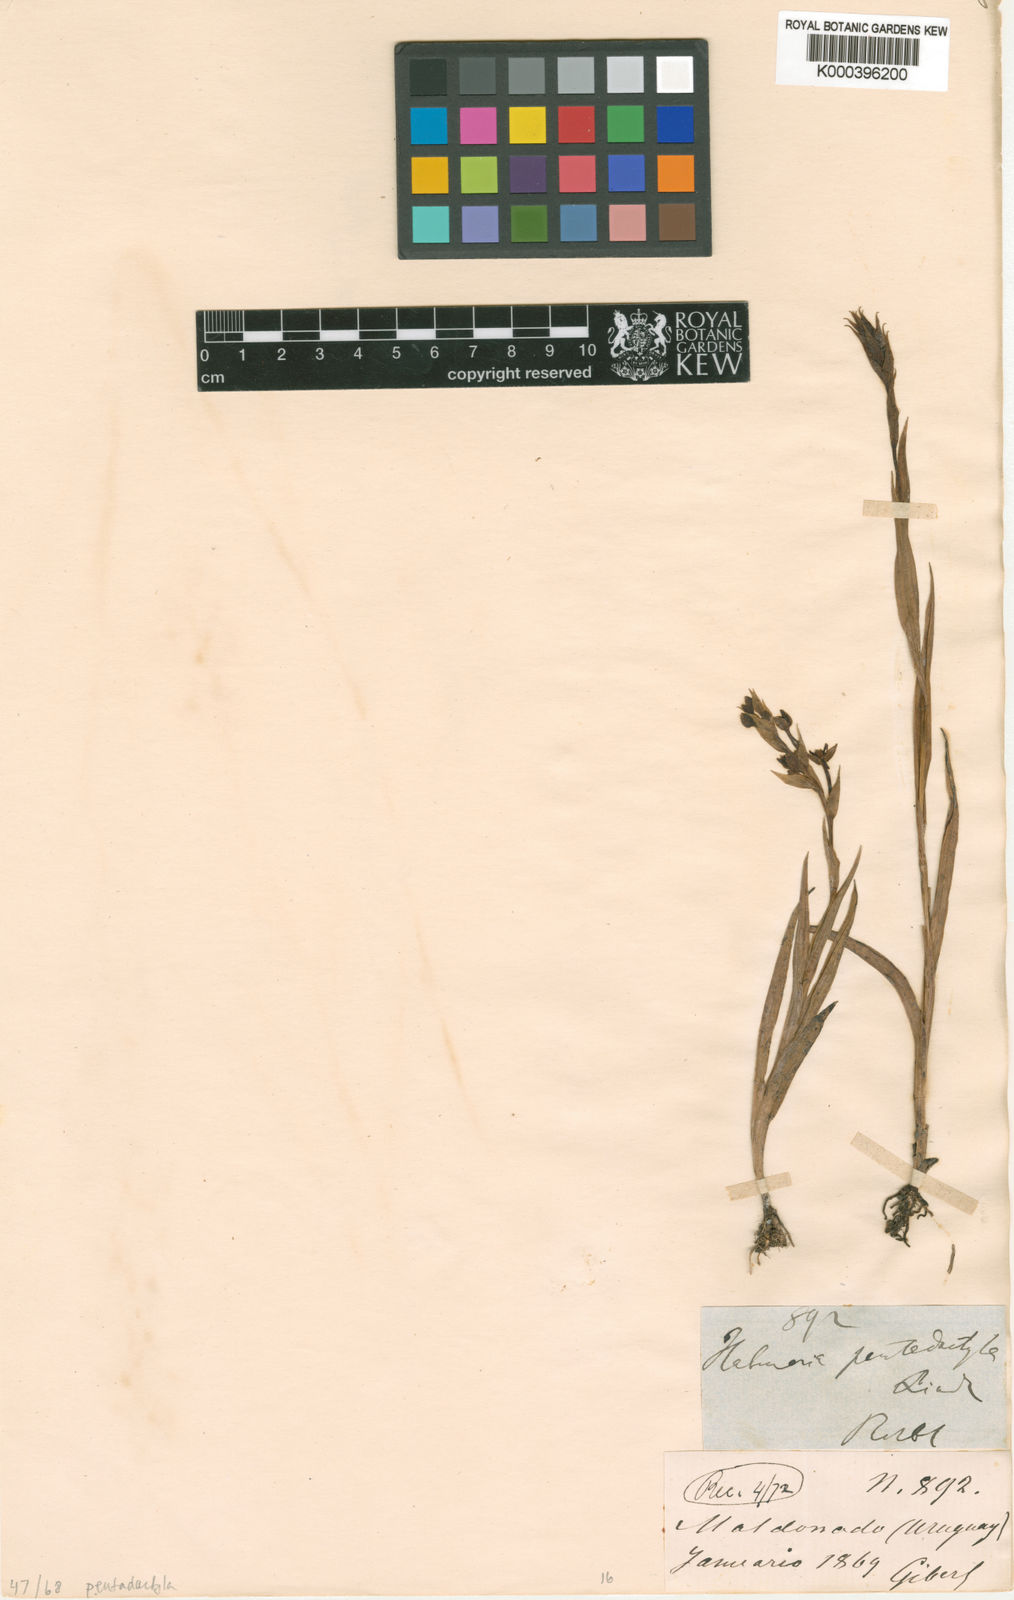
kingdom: Plantae
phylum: Tracheophyta
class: Liliopsida
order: Asparagales
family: Orchidaceae
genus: Habenaria
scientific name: Habenaria pentadactyla
